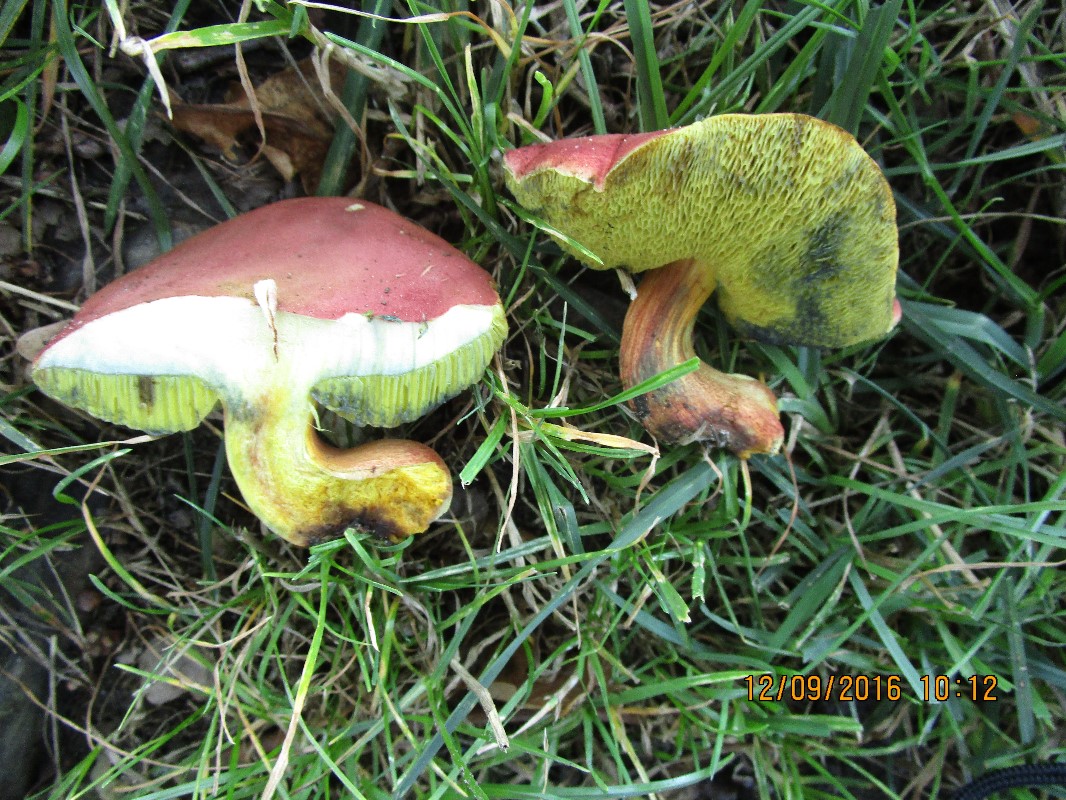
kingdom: Fungi
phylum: Basidiomycota
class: Agaricomycetes
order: Boletales
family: Boletaceae
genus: Hortiboletus
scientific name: Hortiboletus rubellus
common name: blodrød rørhat
